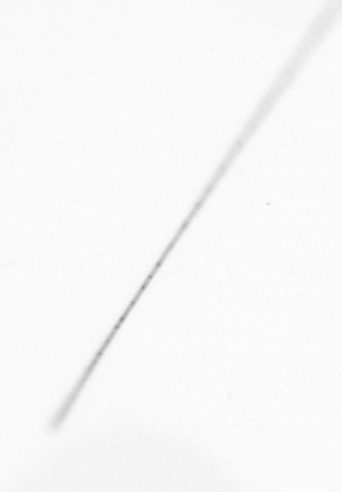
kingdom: Chromista
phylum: Ochrophyta
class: Bacillariophyceae
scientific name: Bacillariophyceae
